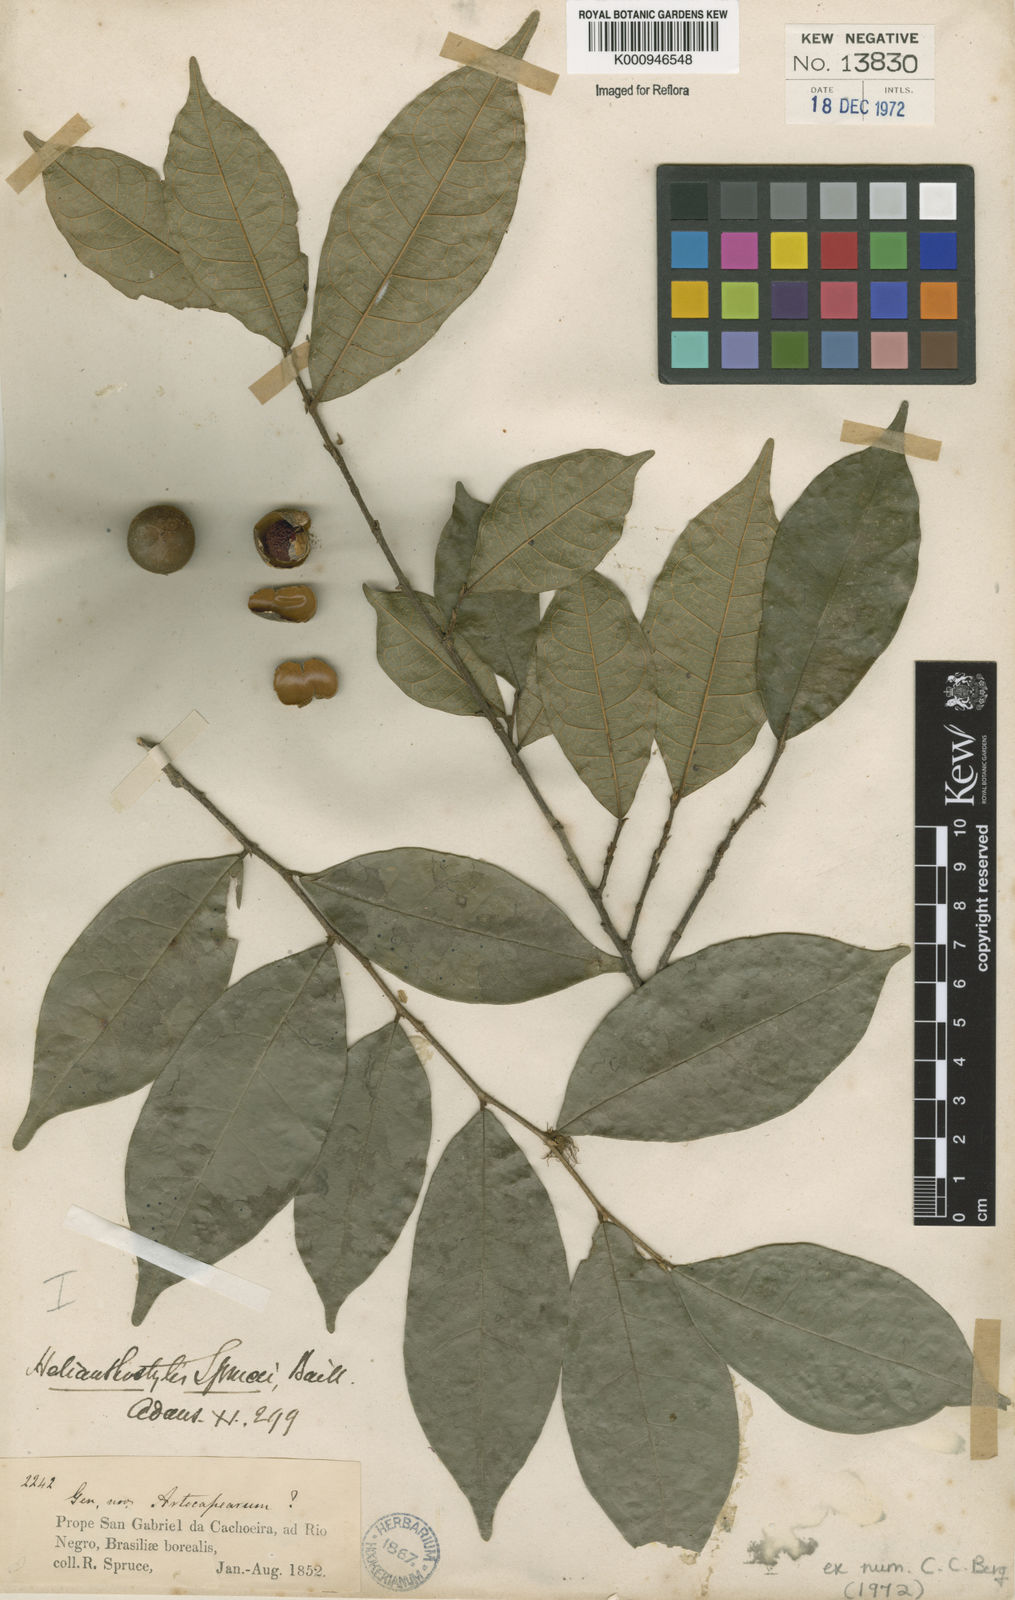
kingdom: Plantae
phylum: Tracheophyta
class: Magnoliopsida
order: Rosales
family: Moraceae
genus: Brosimum
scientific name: Brosimum sprucei
